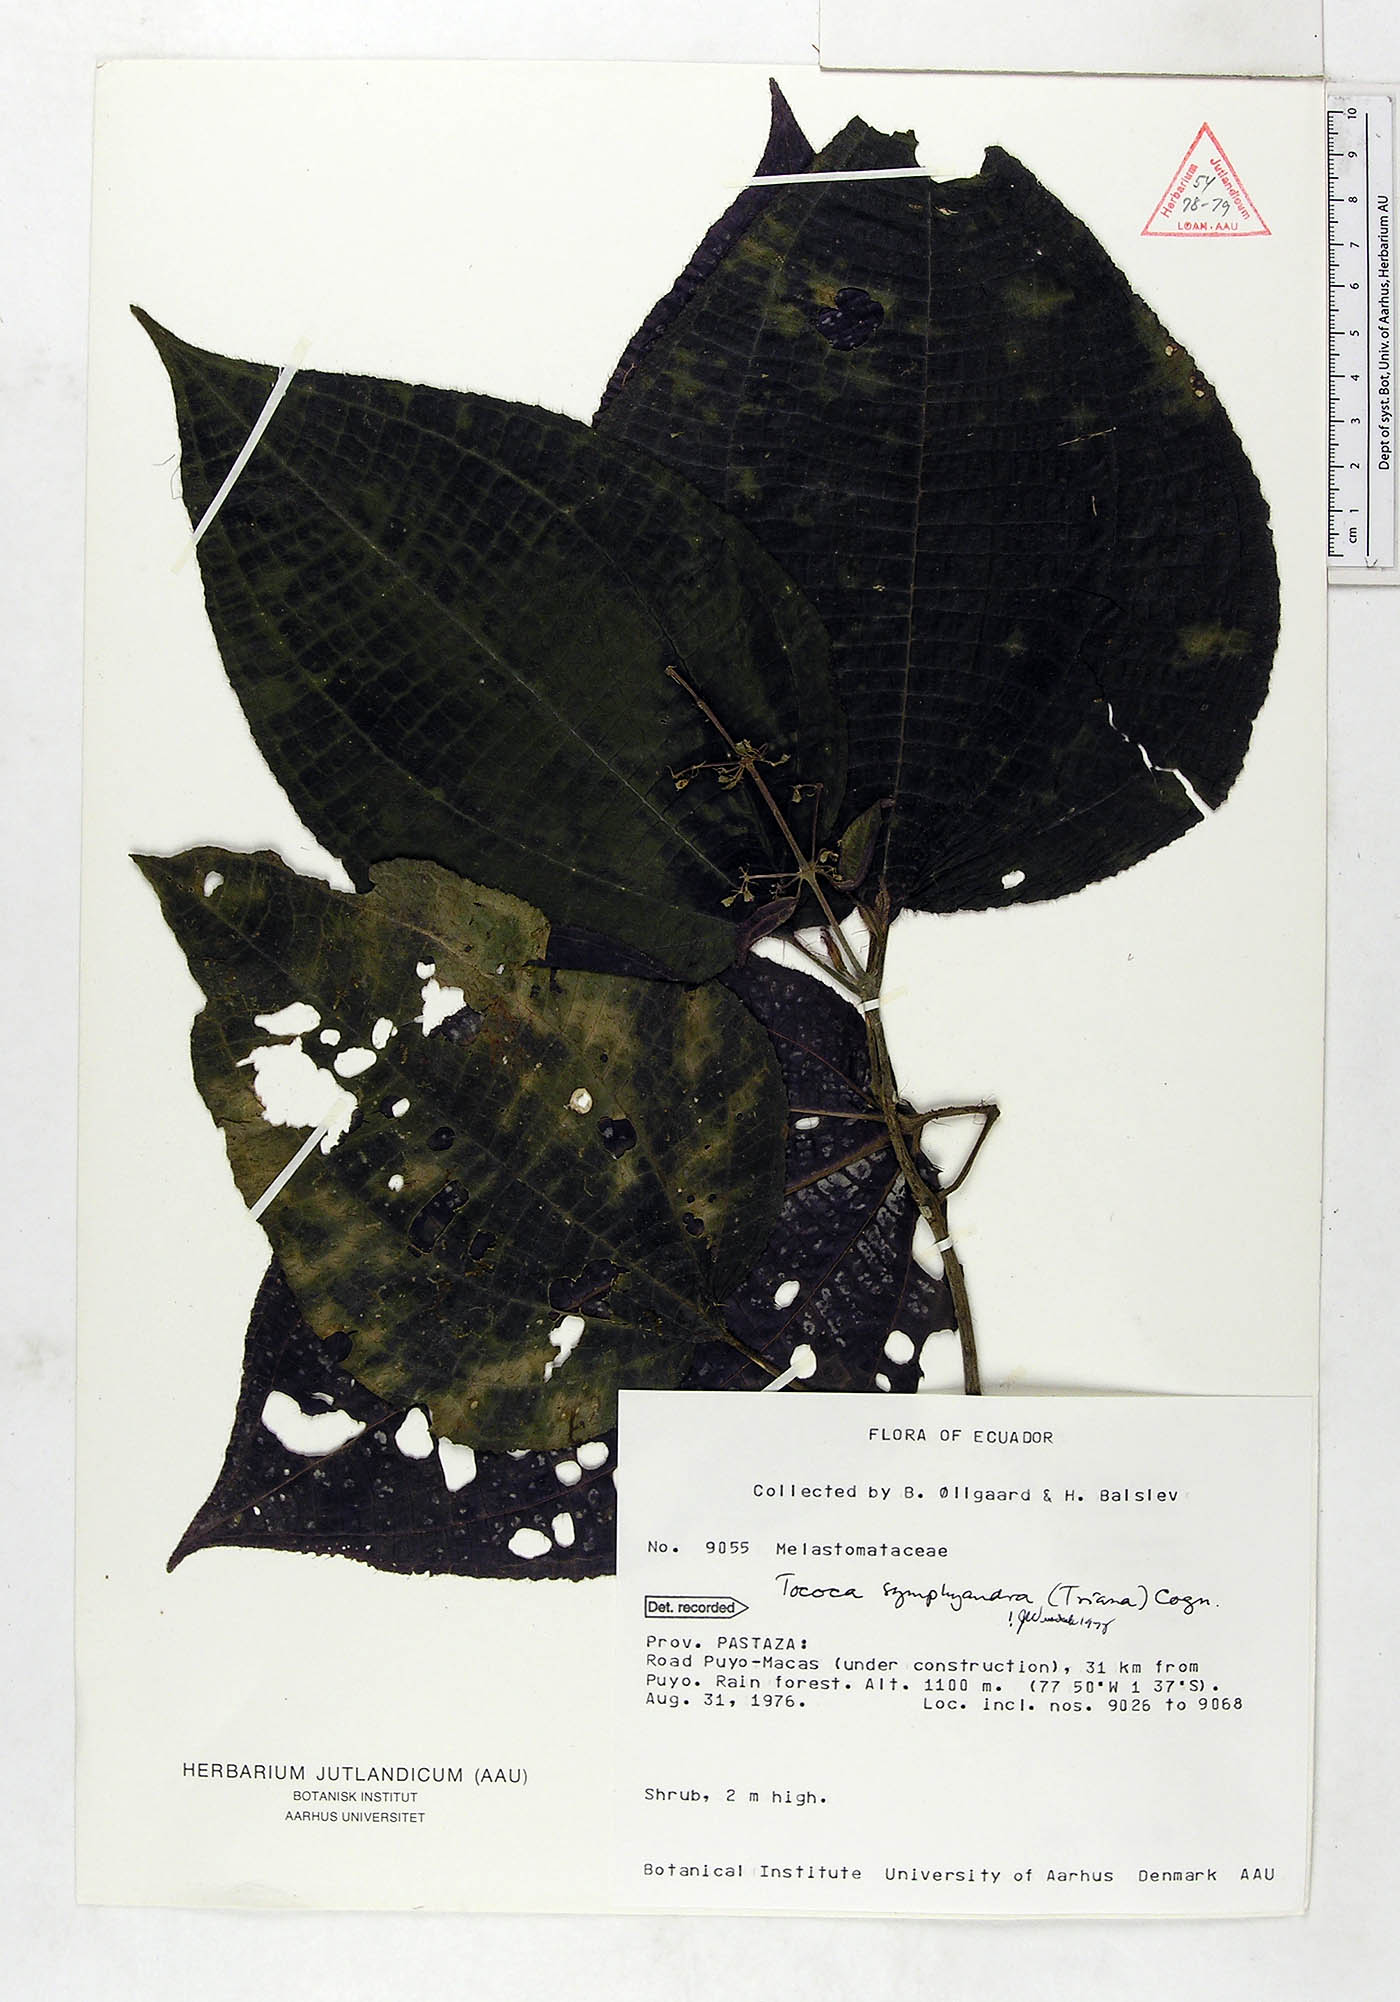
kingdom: Plantae
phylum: Tracheophyta
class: Magnoliopsida
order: Myrtales
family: Melastomataceae
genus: Miconia
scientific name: Miconia symphyandra
